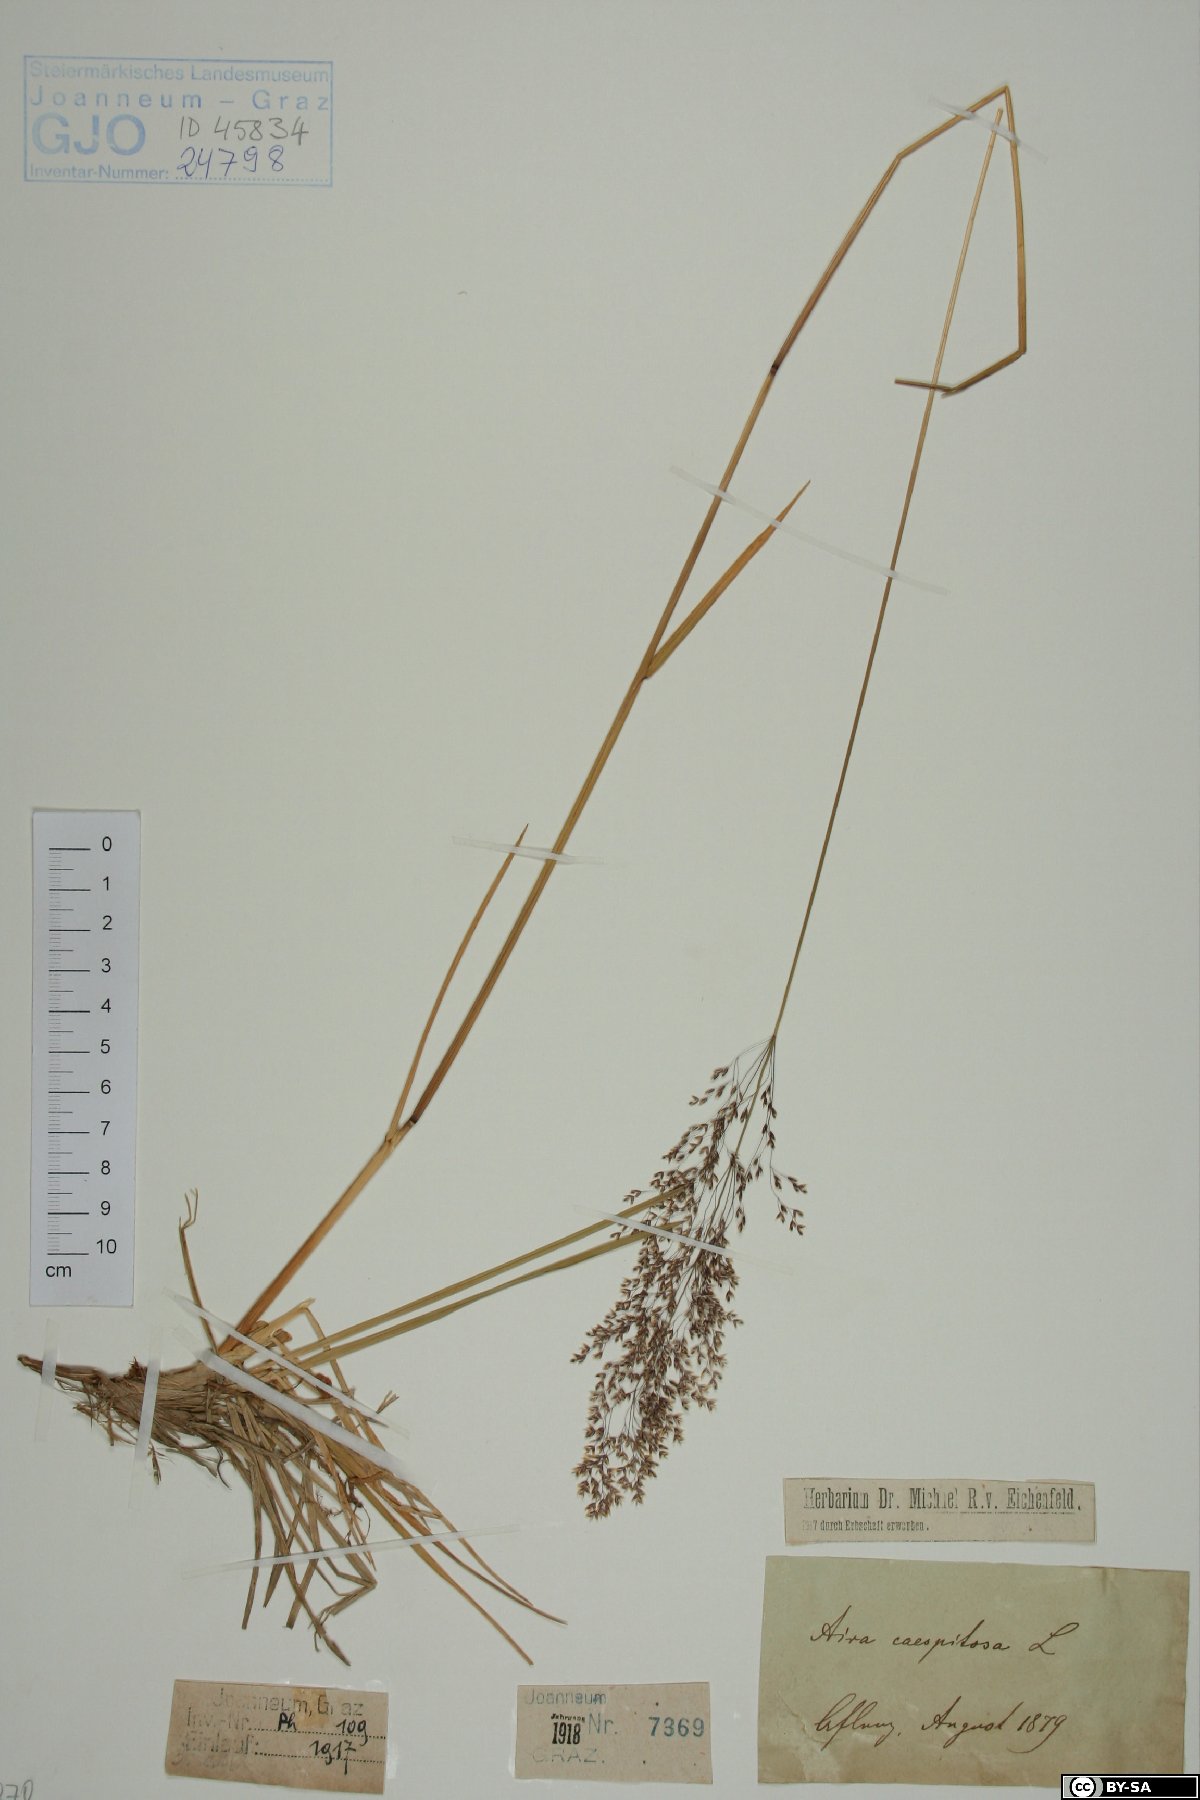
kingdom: Plantae
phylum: Tracheophyta
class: Liliopsida
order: Poales
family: Poaceae
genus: Deschampsia
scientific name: Deschampsia cespitosa
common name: Tufted hair-grass
